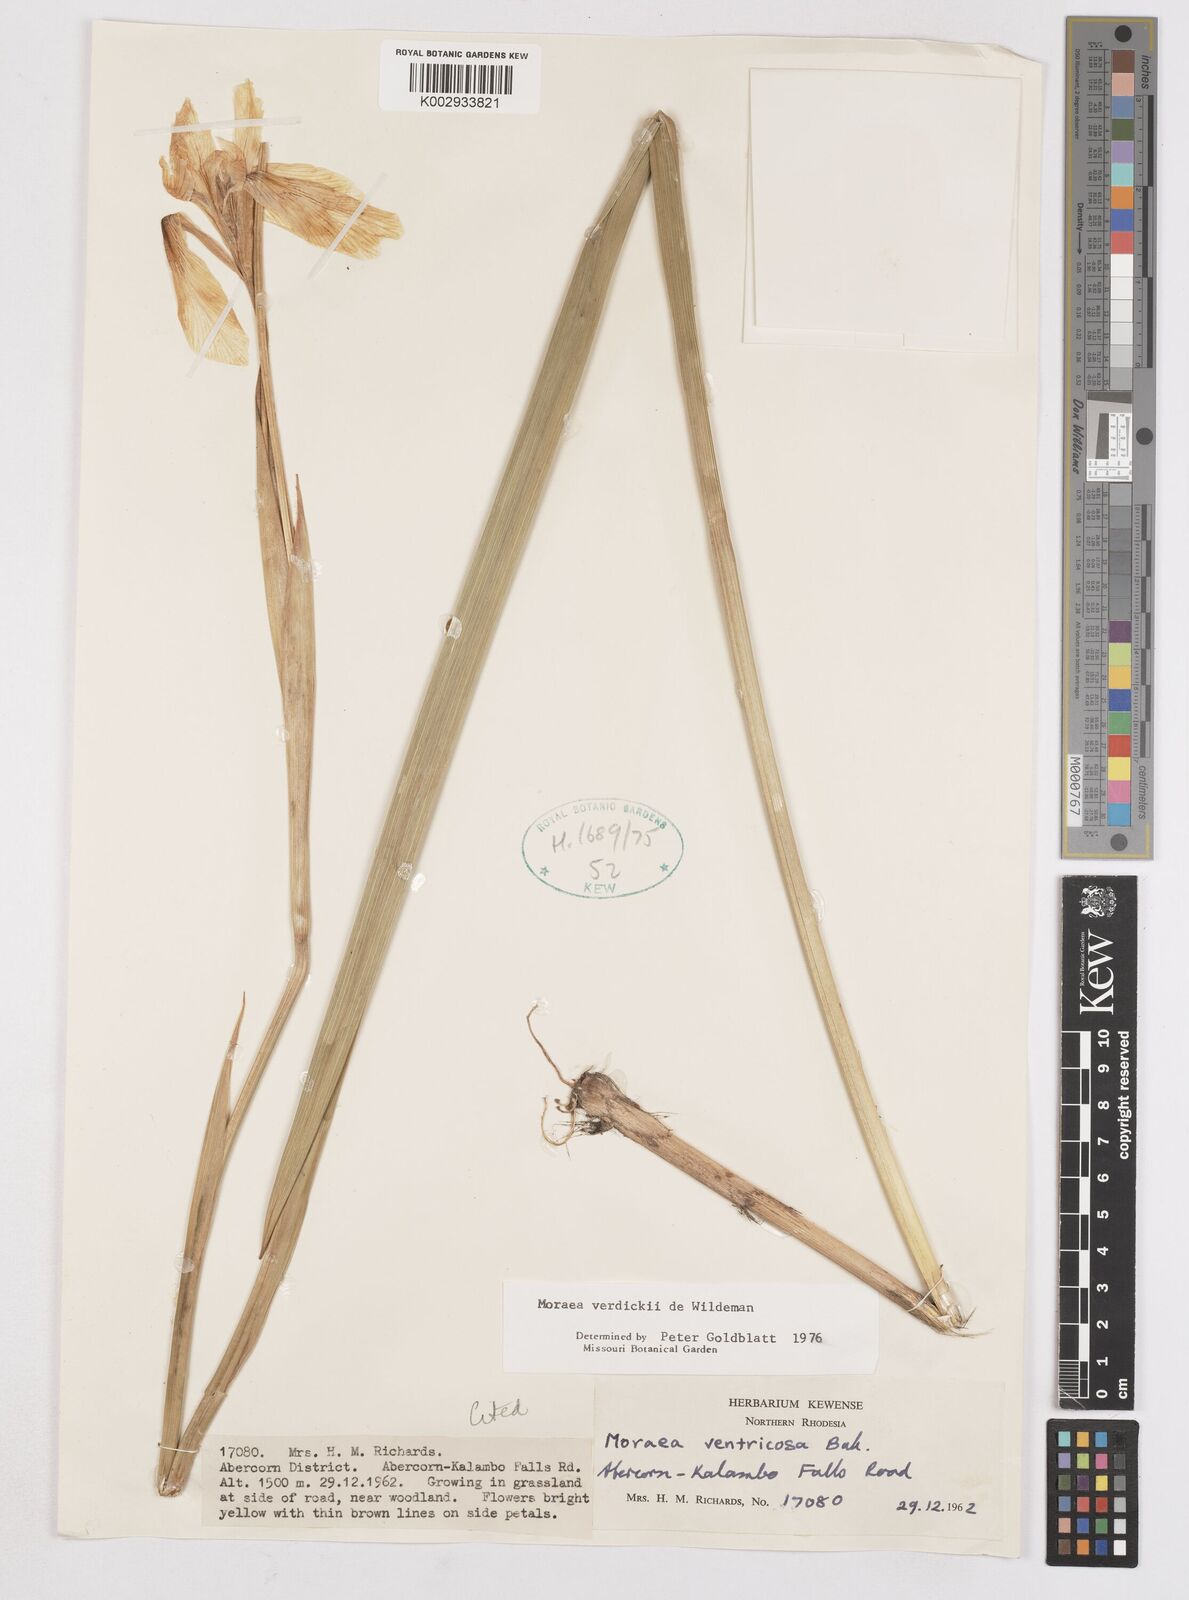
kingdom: Plantae
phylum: Tracheophyta
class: Liliopsida
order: Asparagales
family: Iridaceae
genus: Moraea
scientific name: Moraea verdickii
